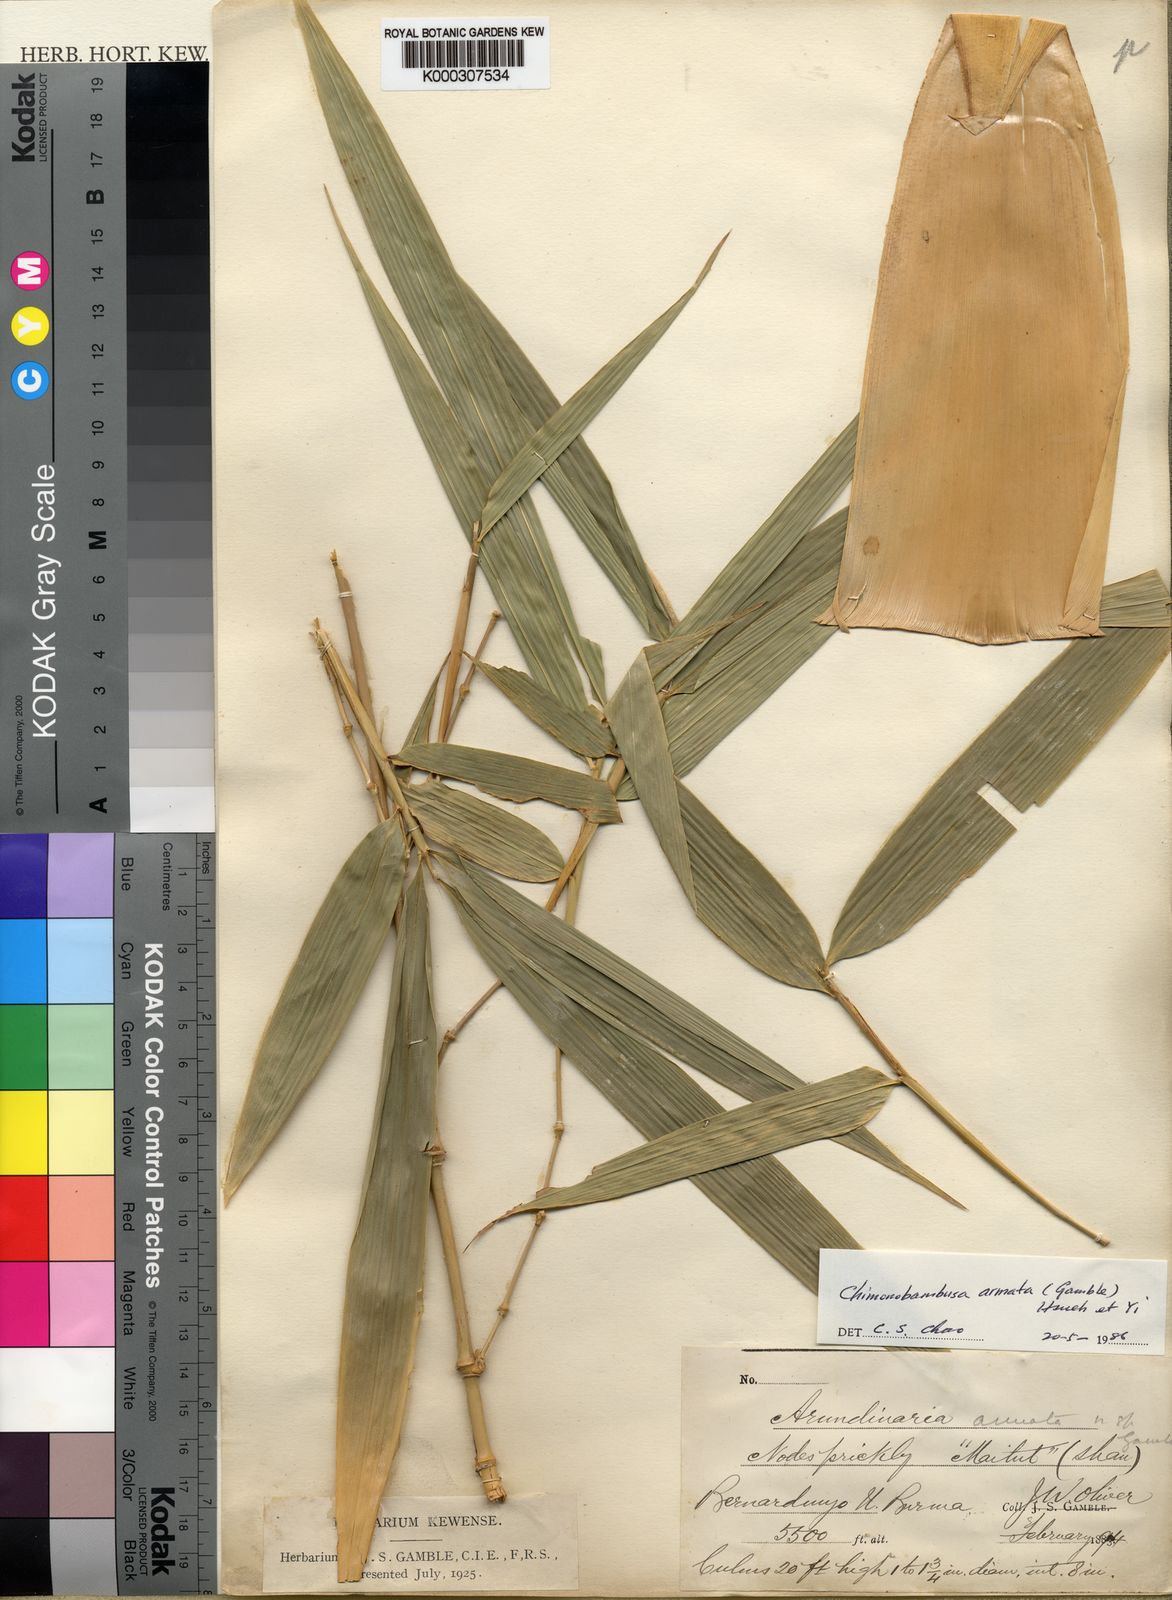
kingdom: Plantae
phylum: Tracheophyta
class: Liliopsida
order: Poales
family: Poaceae
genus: Chimonobambusa
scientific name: Chimonobambusa armata
